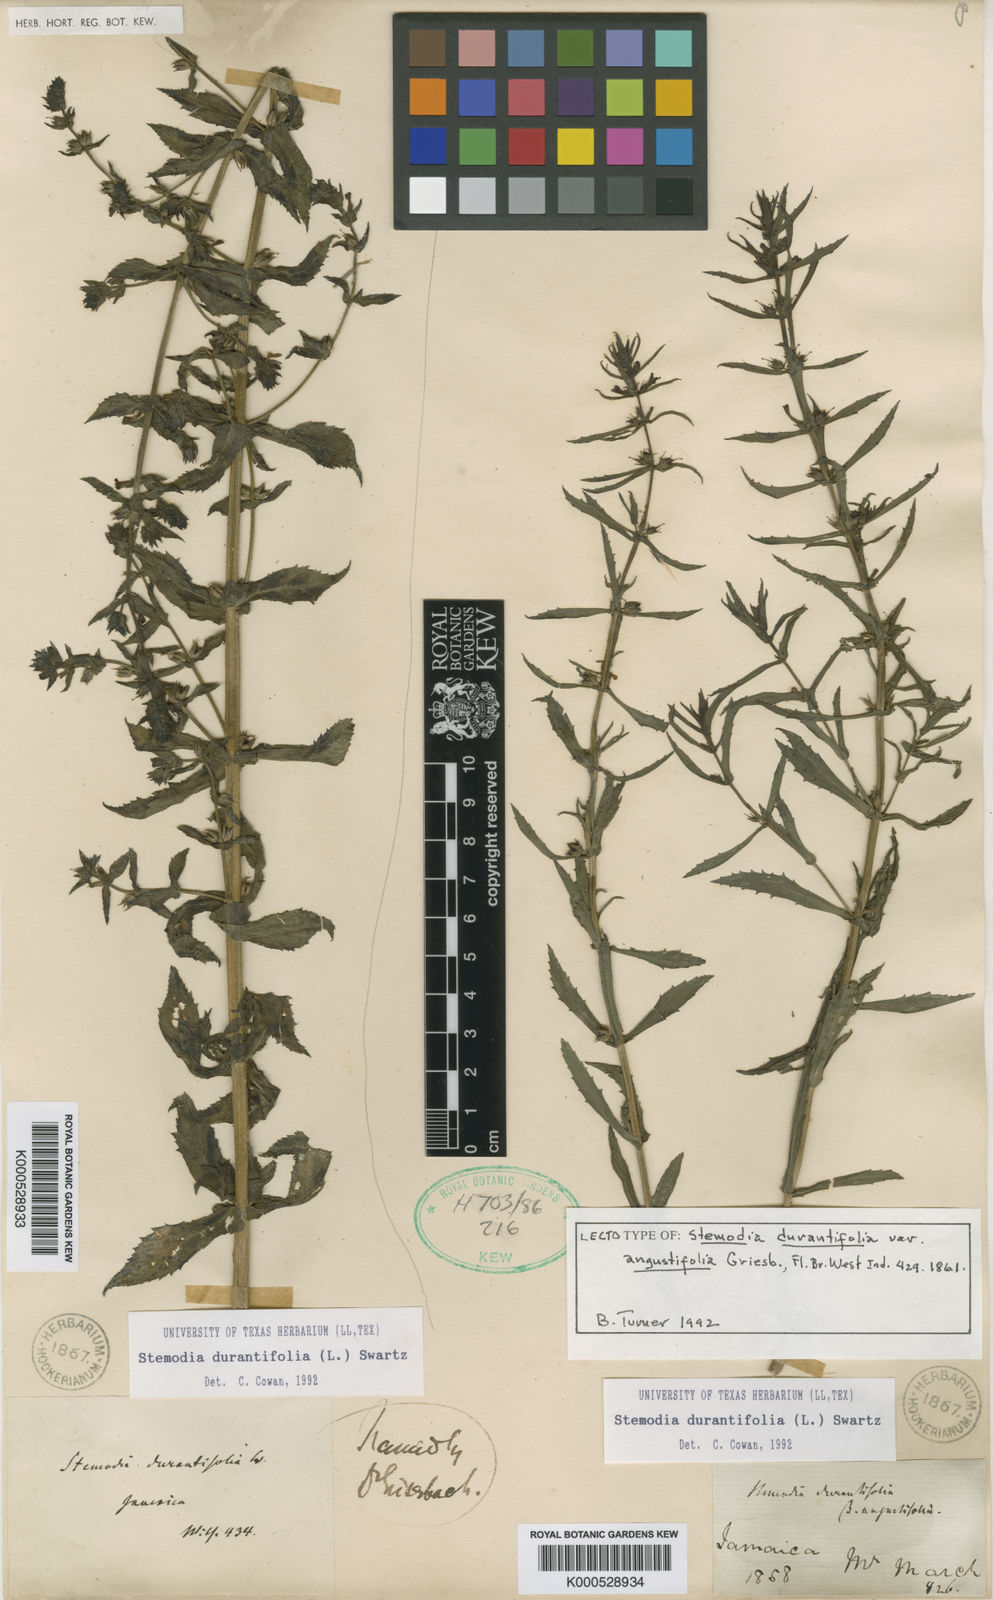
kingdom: Plantae
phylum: Tracheophyta
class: Magnoliopsida
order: Lamiales
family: Plantaginaceae
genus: Stemodia
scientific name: Stemodia durantifolia
